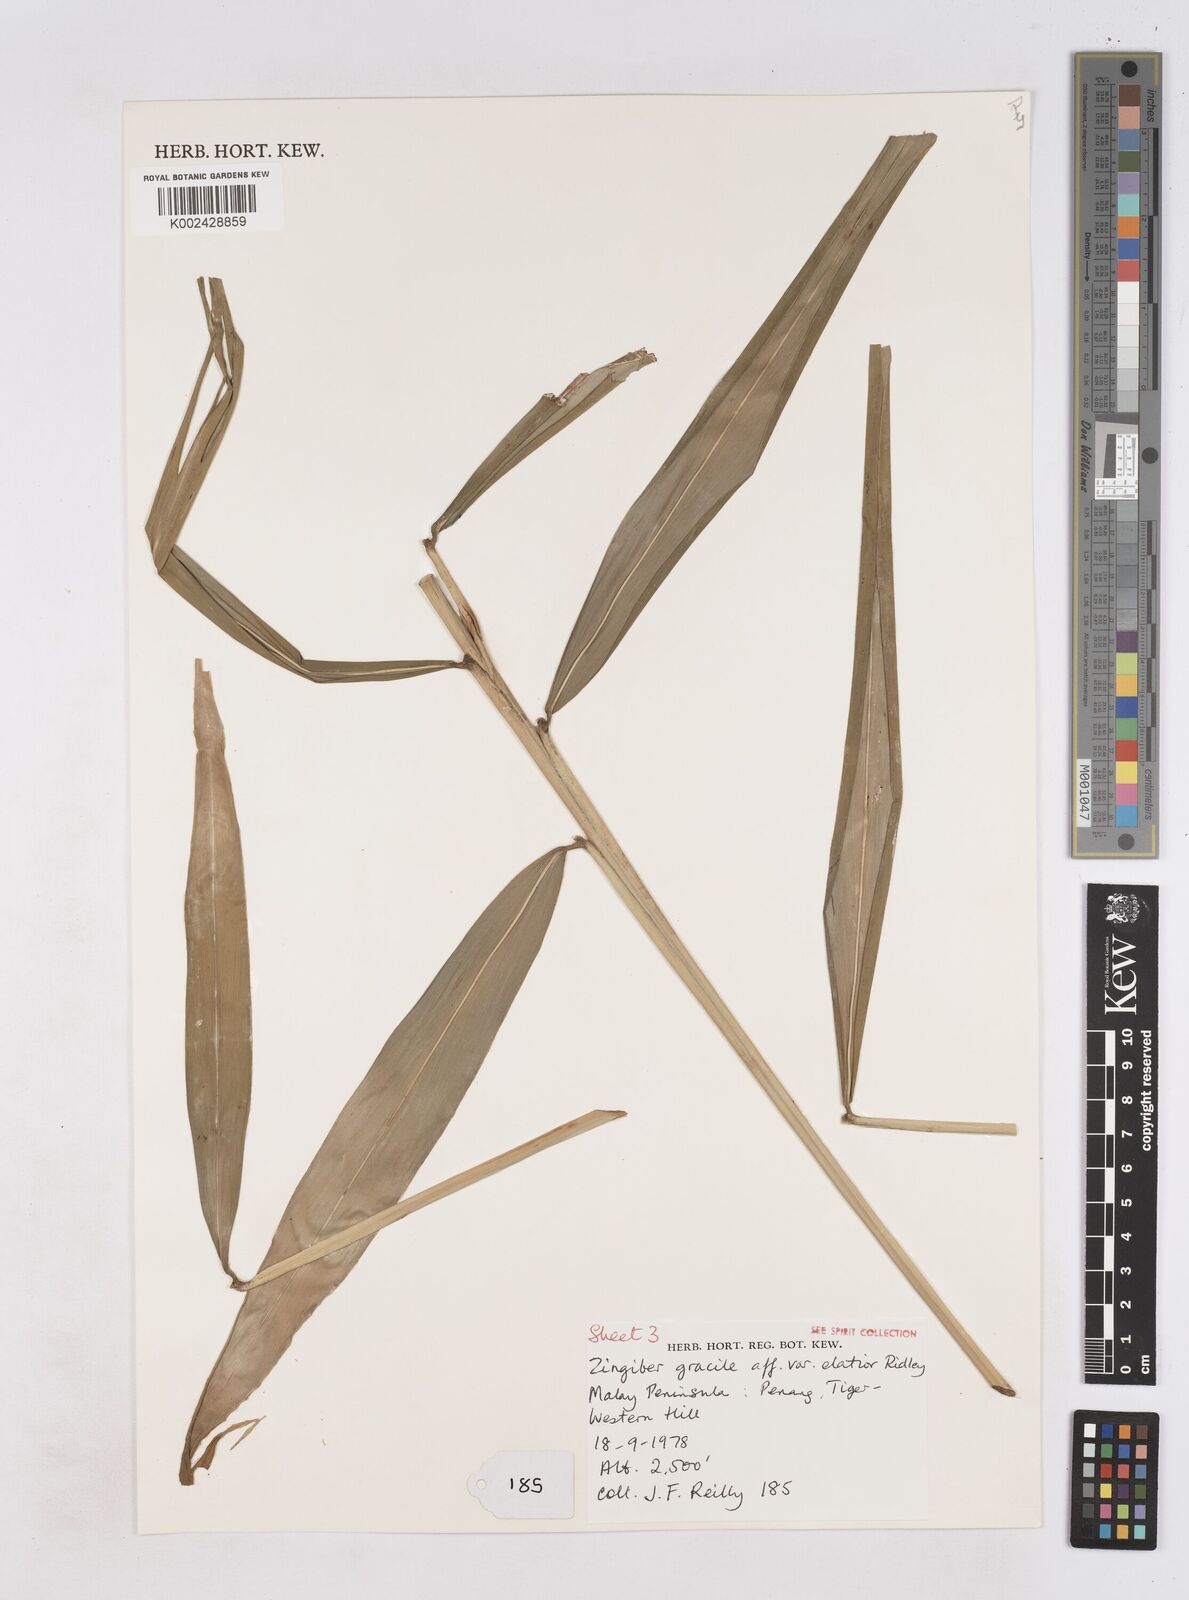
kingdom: Plantae
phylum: Tracheophyta
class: Liliopsida
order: Zingiberales
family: Zingiberaceae
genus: Zingiber
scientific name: Zingiber gracile
